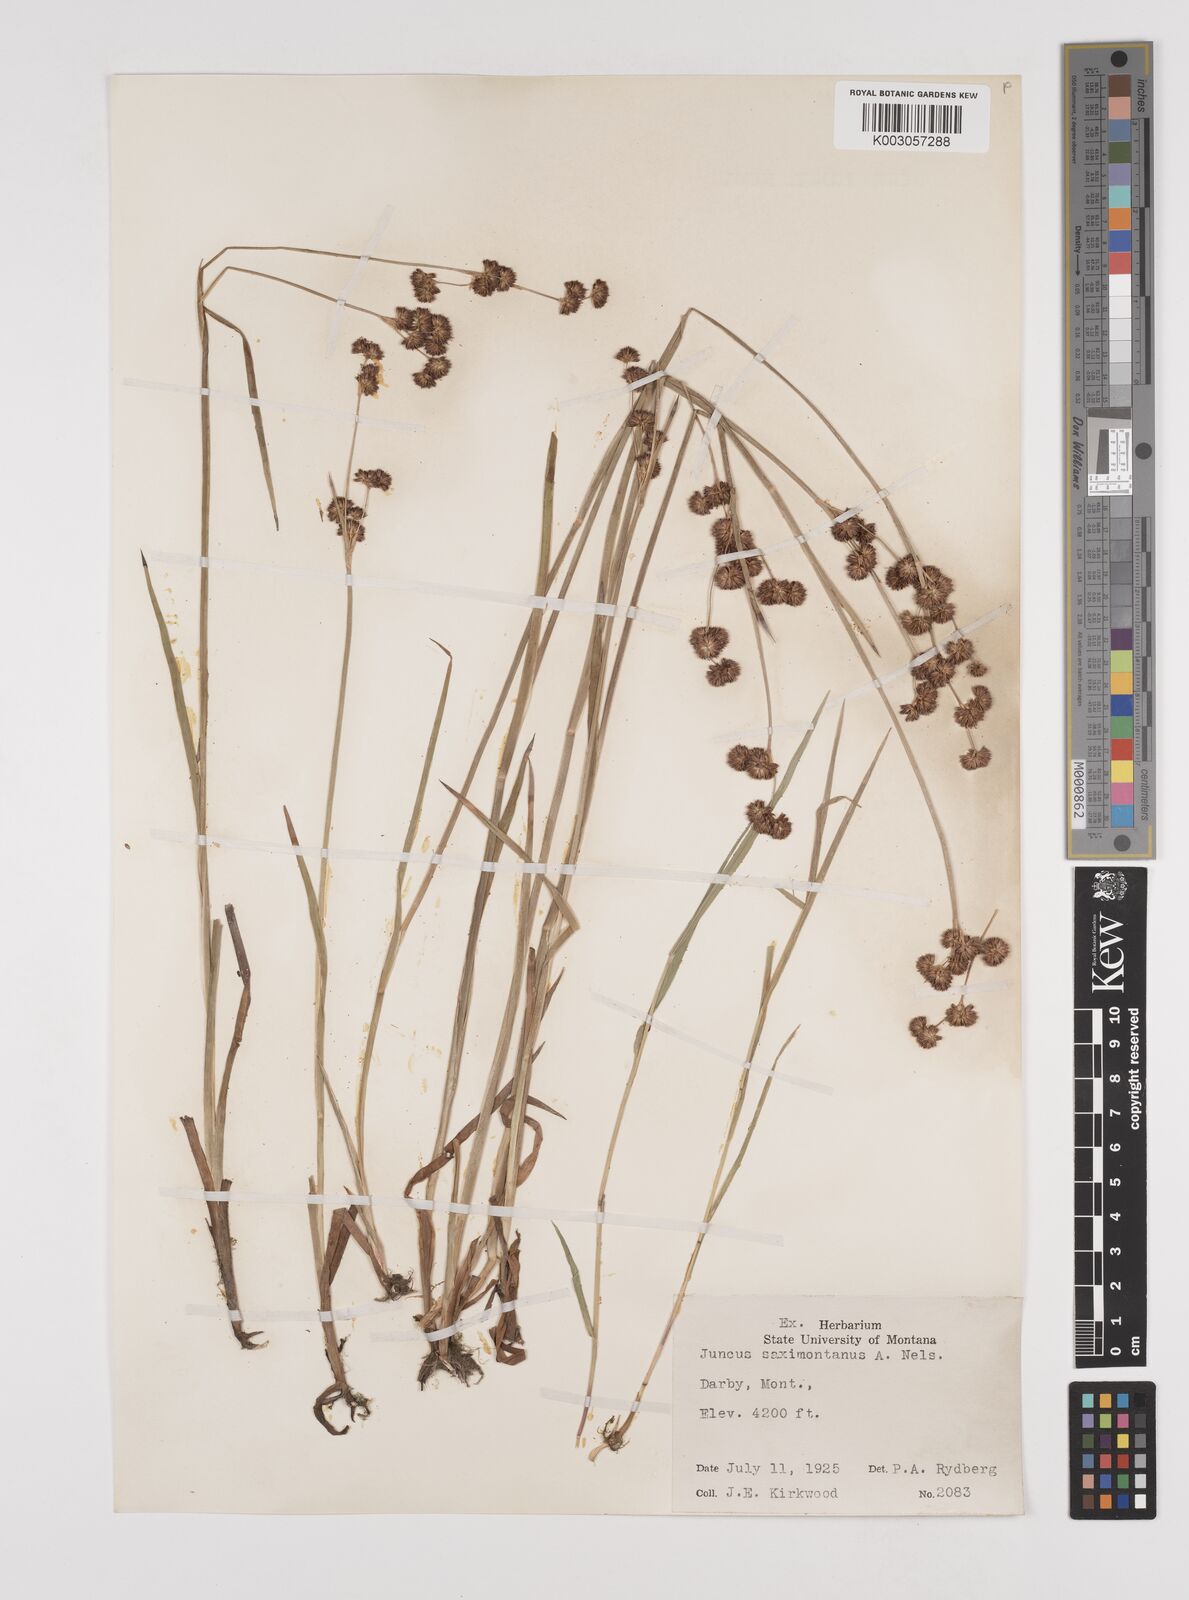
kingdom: Plantae
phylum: Tracheophyta
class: Liliopsida
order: Poales
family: Juncaceae
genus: Juncus
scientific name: Juncus saximontanus
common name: Rocky mountain rush
